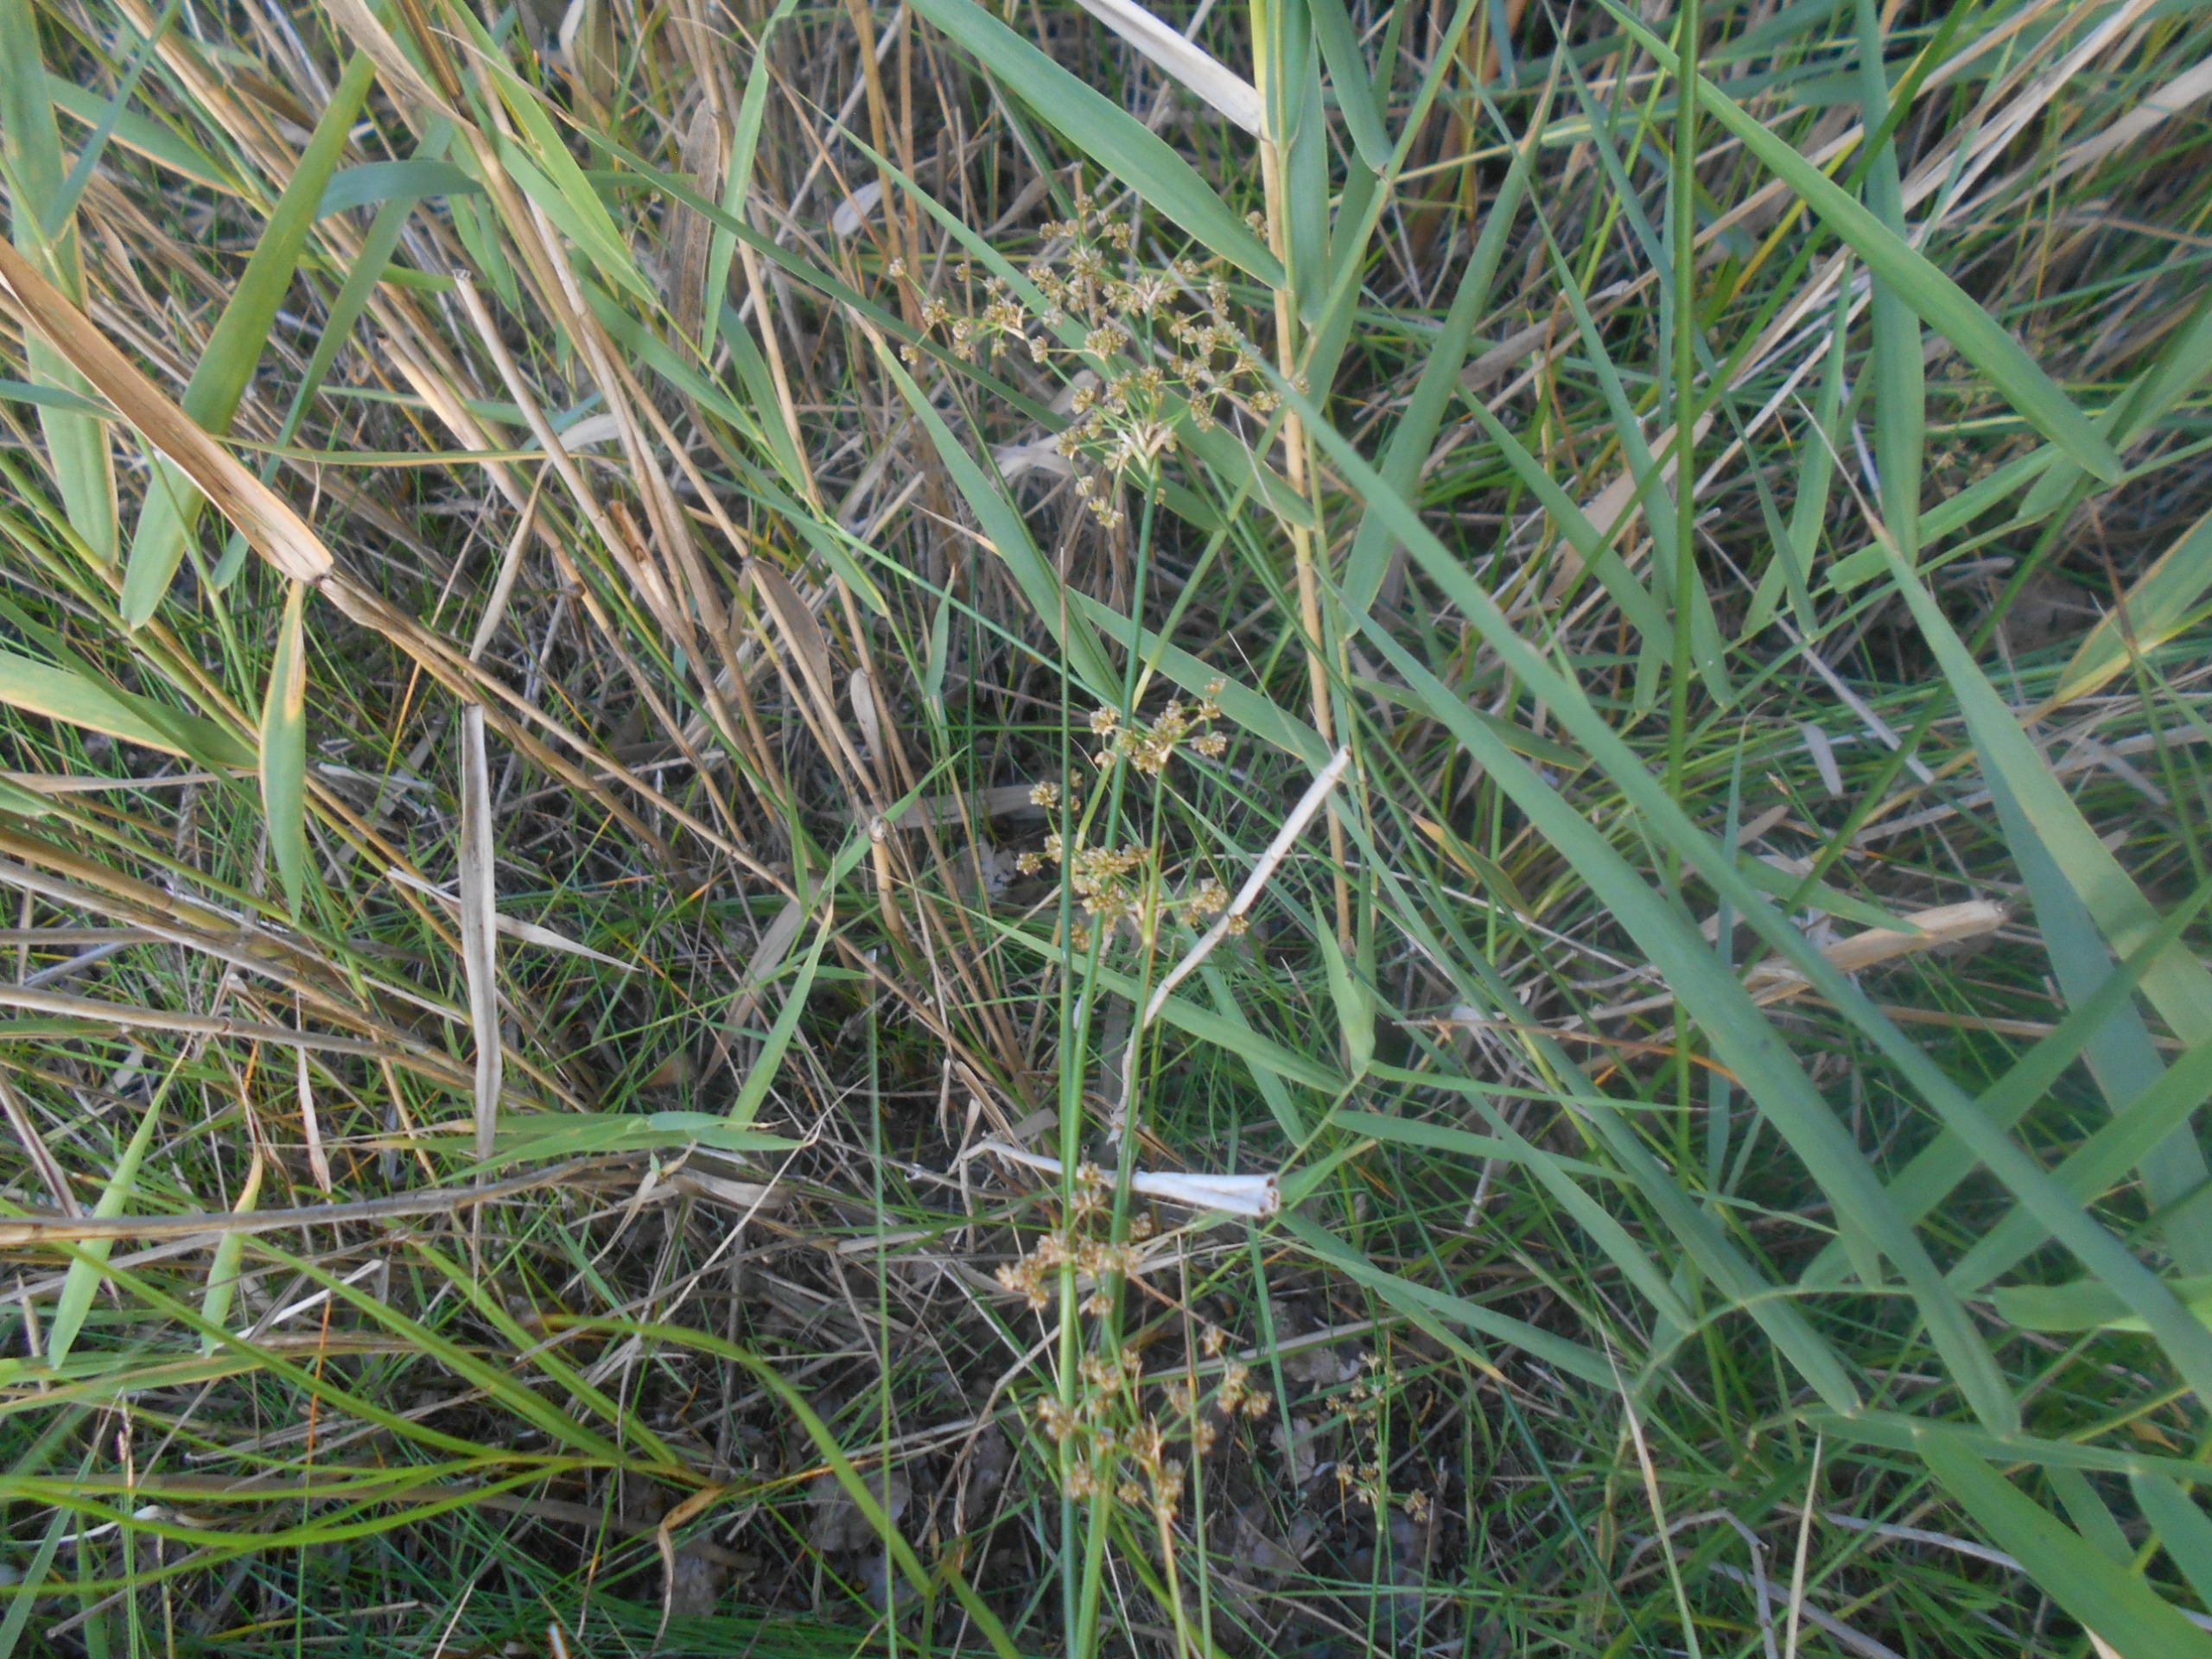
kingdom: Plantae
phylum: Tracheophyta
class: Liliopsida
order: Poales
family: Juncaceae
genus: Juncus
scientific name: Juncus subnodulosus
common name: Butblomstret siv
